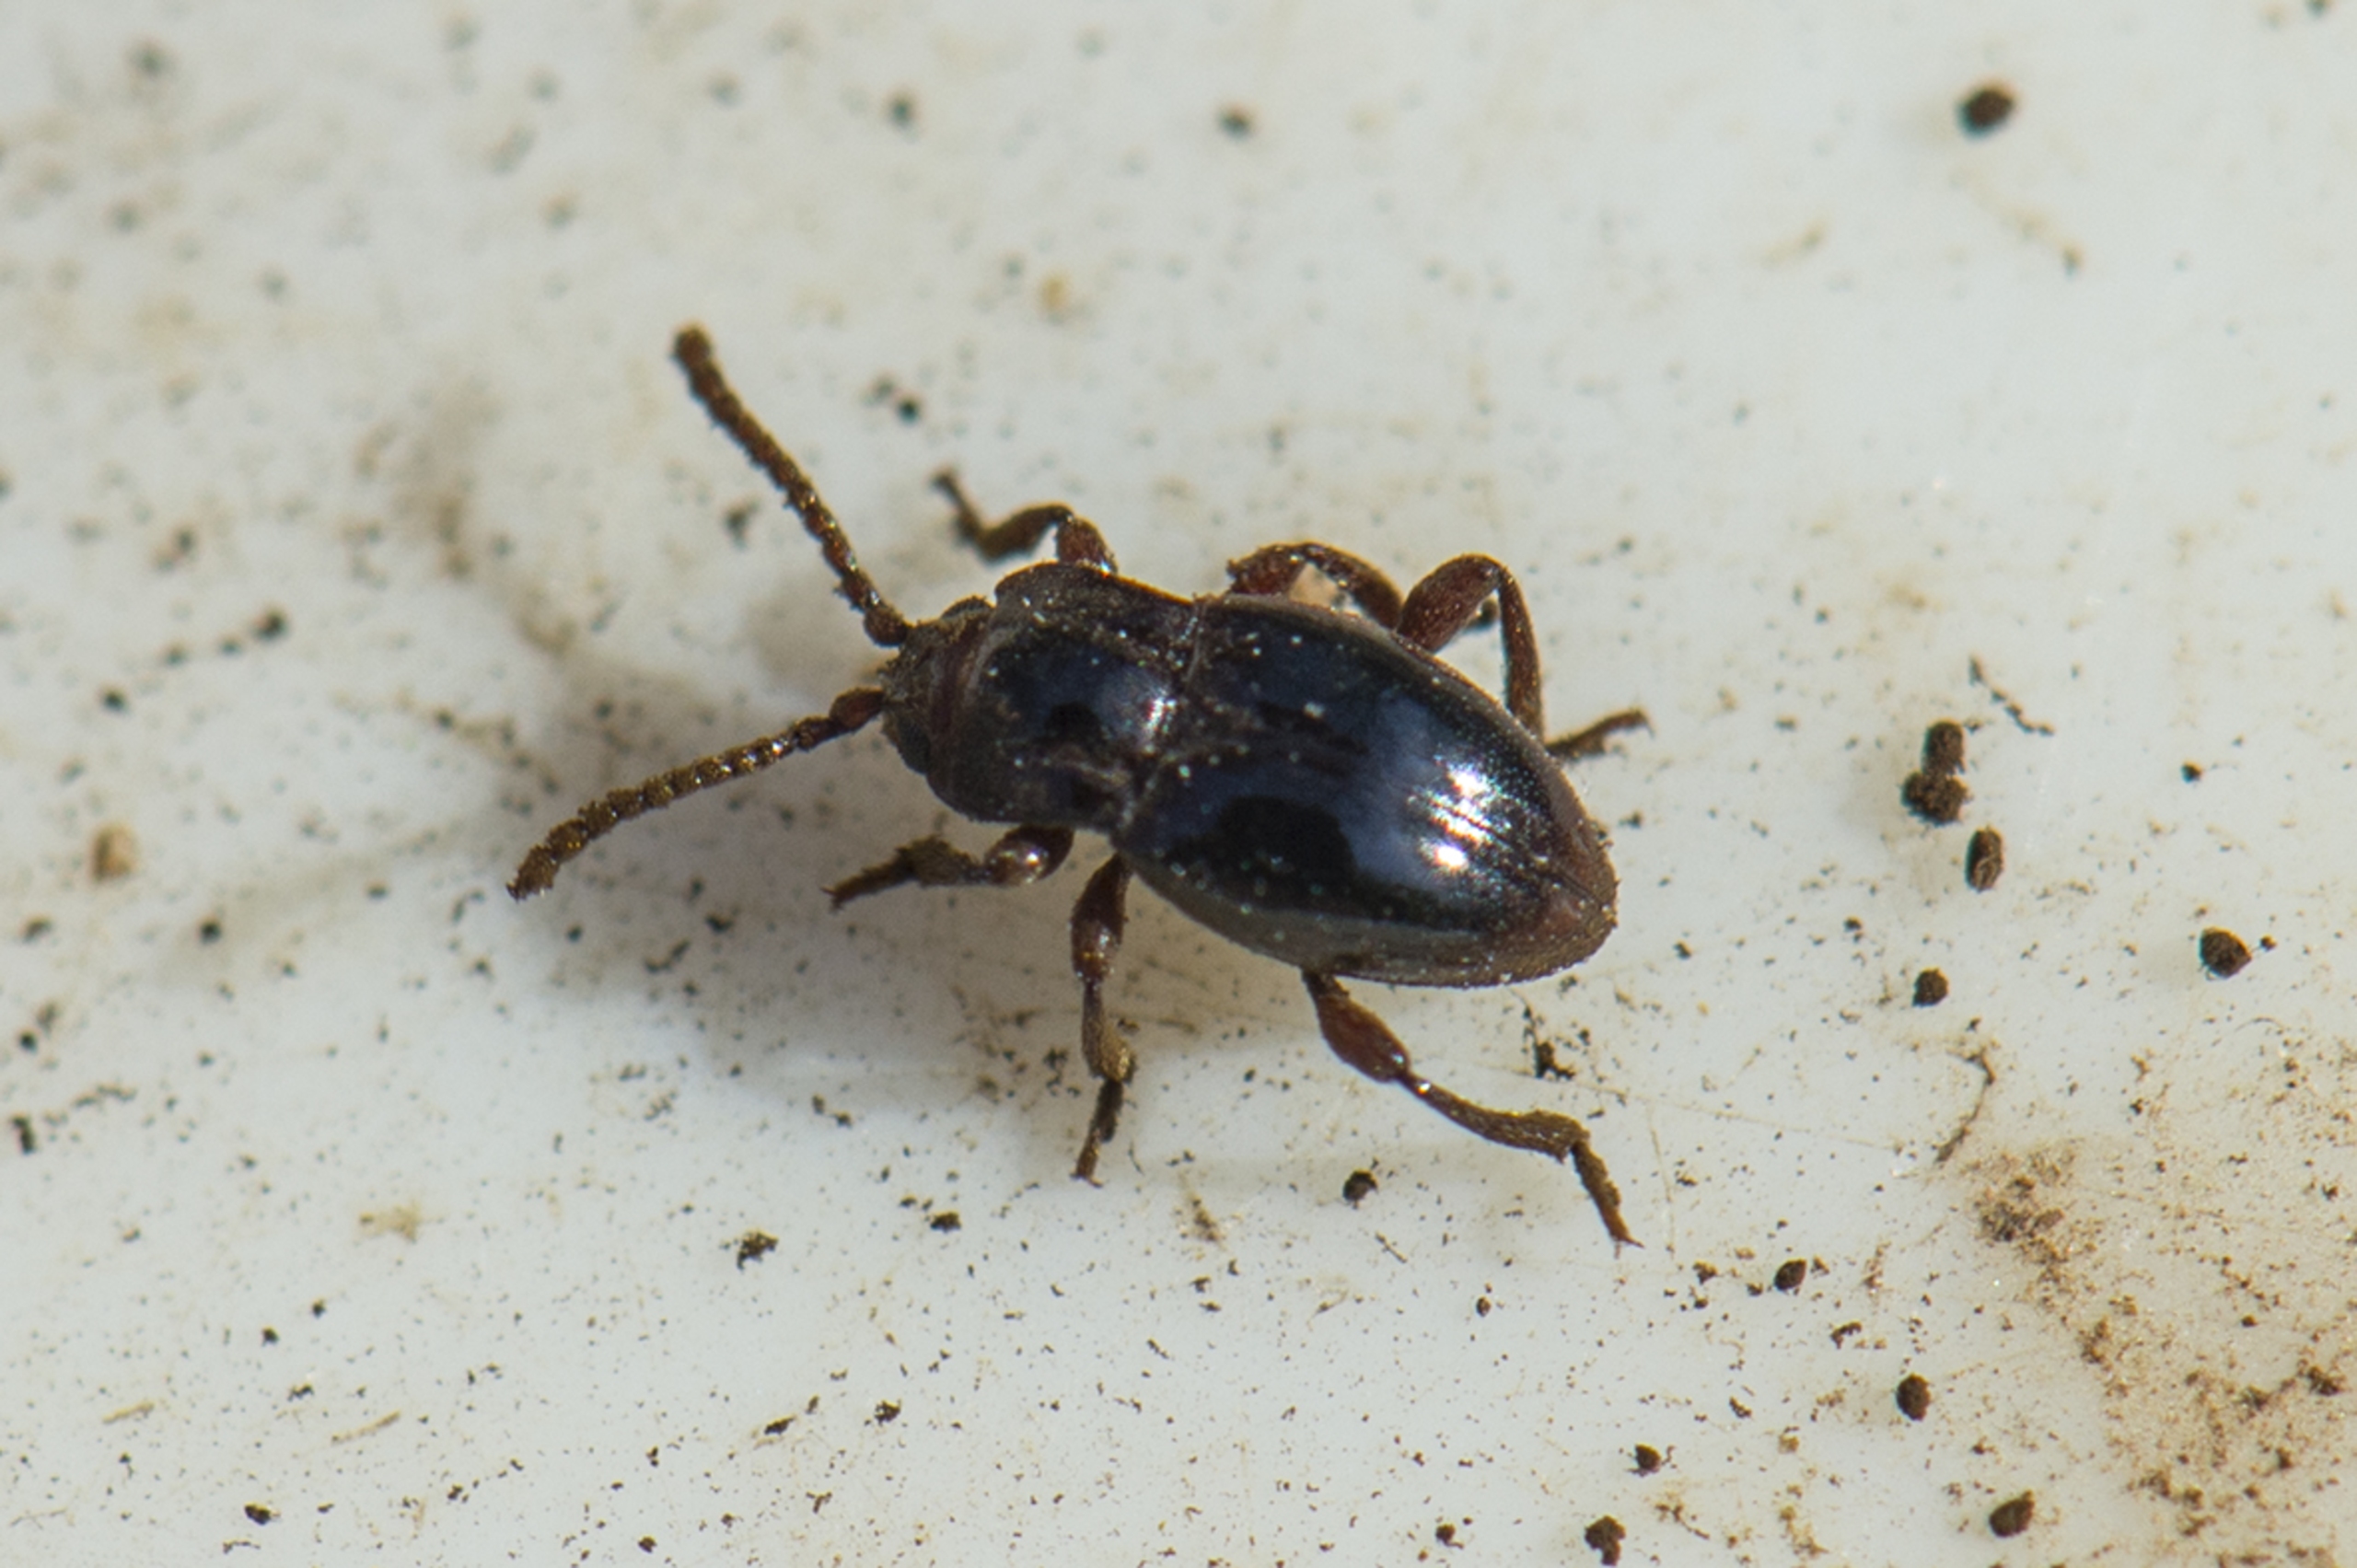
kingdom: Animalia
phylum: Arthropoda
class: Insecta
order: Coleoptera
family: Endomychidae
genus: Lycoperdina
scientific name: Lycoperdina bovistae
